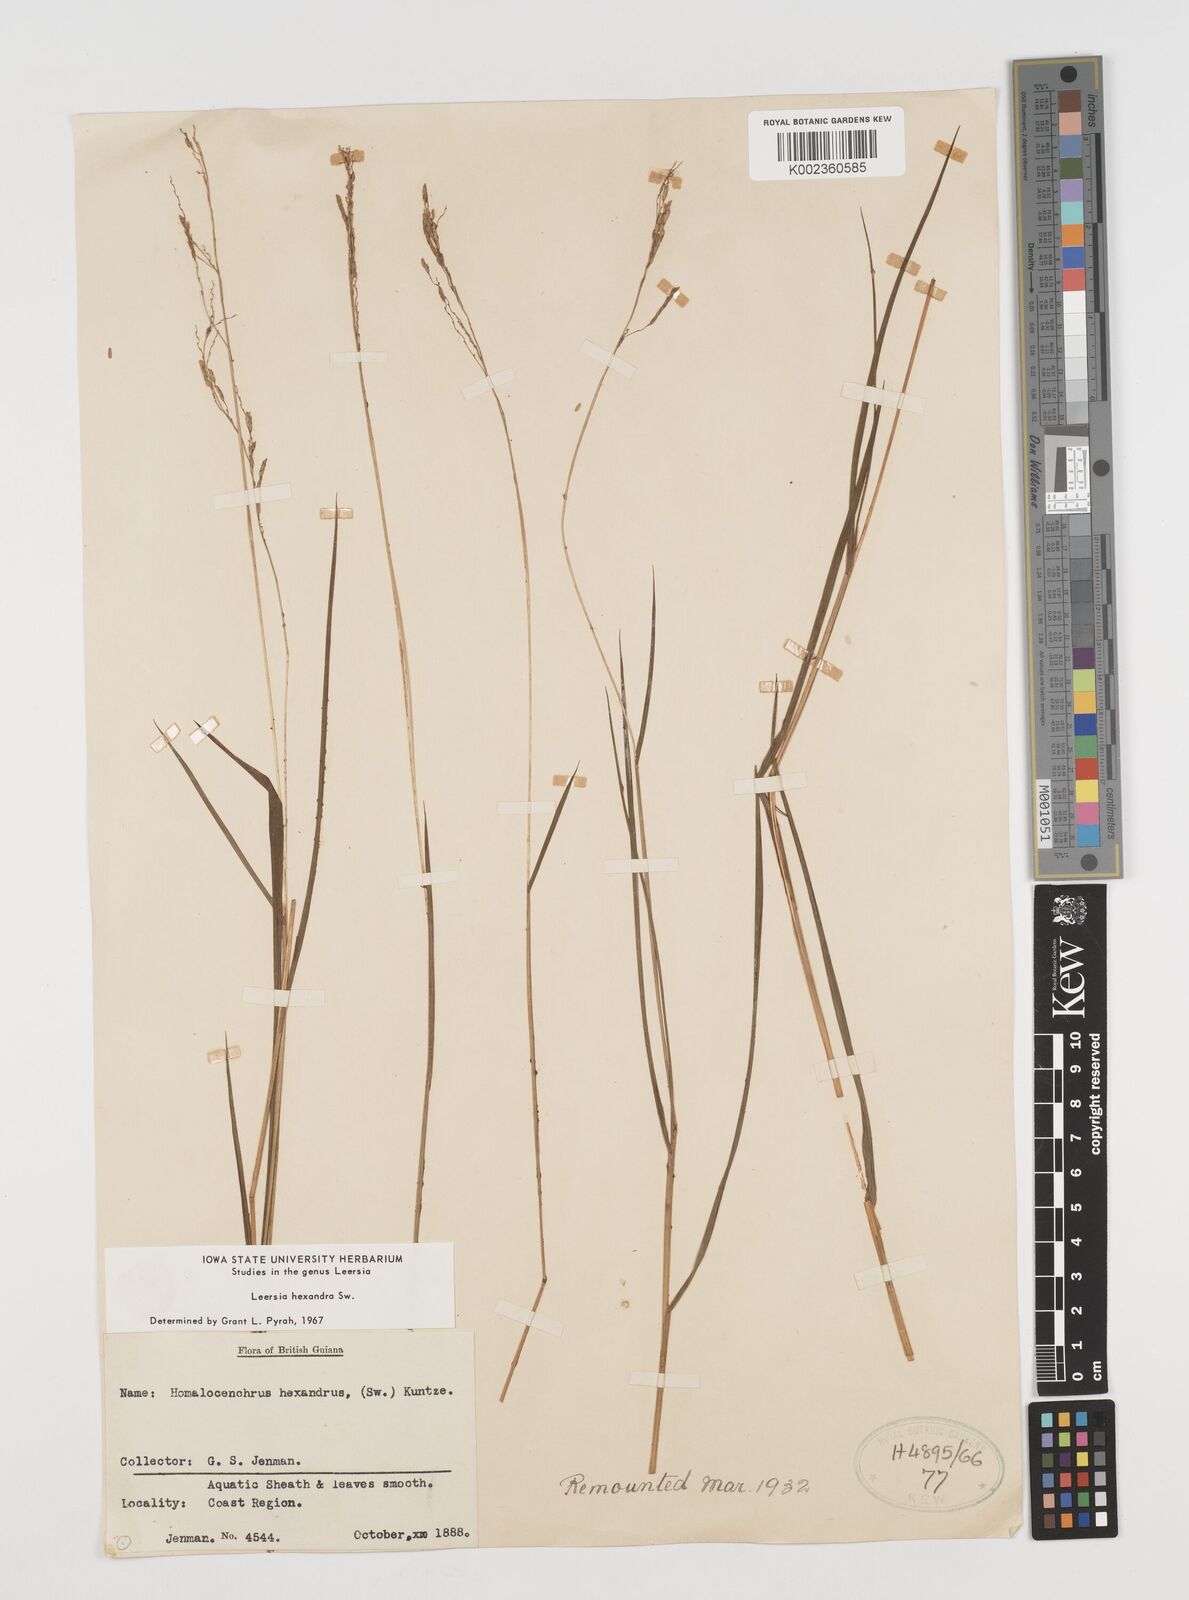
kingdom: Plantae
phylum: Tracheophyta
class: Liliopsida
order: Poales
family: Poaceae
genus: Leersia
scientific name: Leersia hexandra
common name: Southern cut grass
